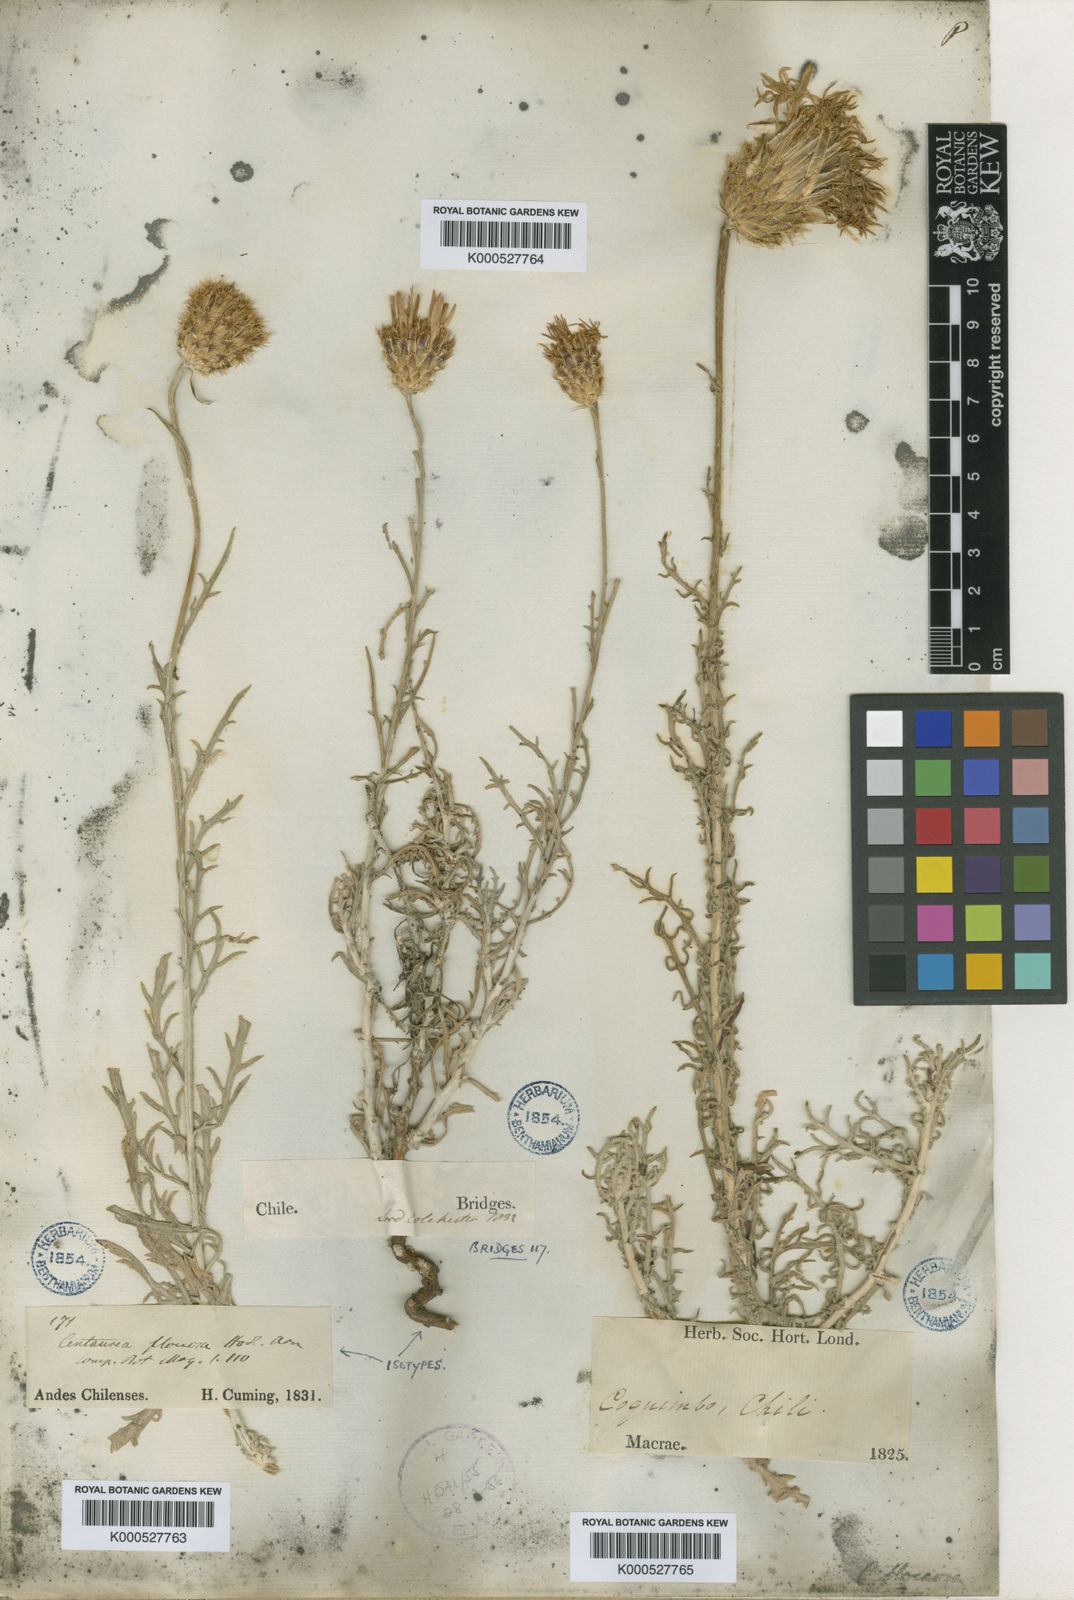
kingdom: Plantae
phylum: Tracheophyta
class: Magnoliopsida
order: Asterales
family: Asteraceae
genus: Plectocephalus
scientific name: Plectocephalus floccosus
